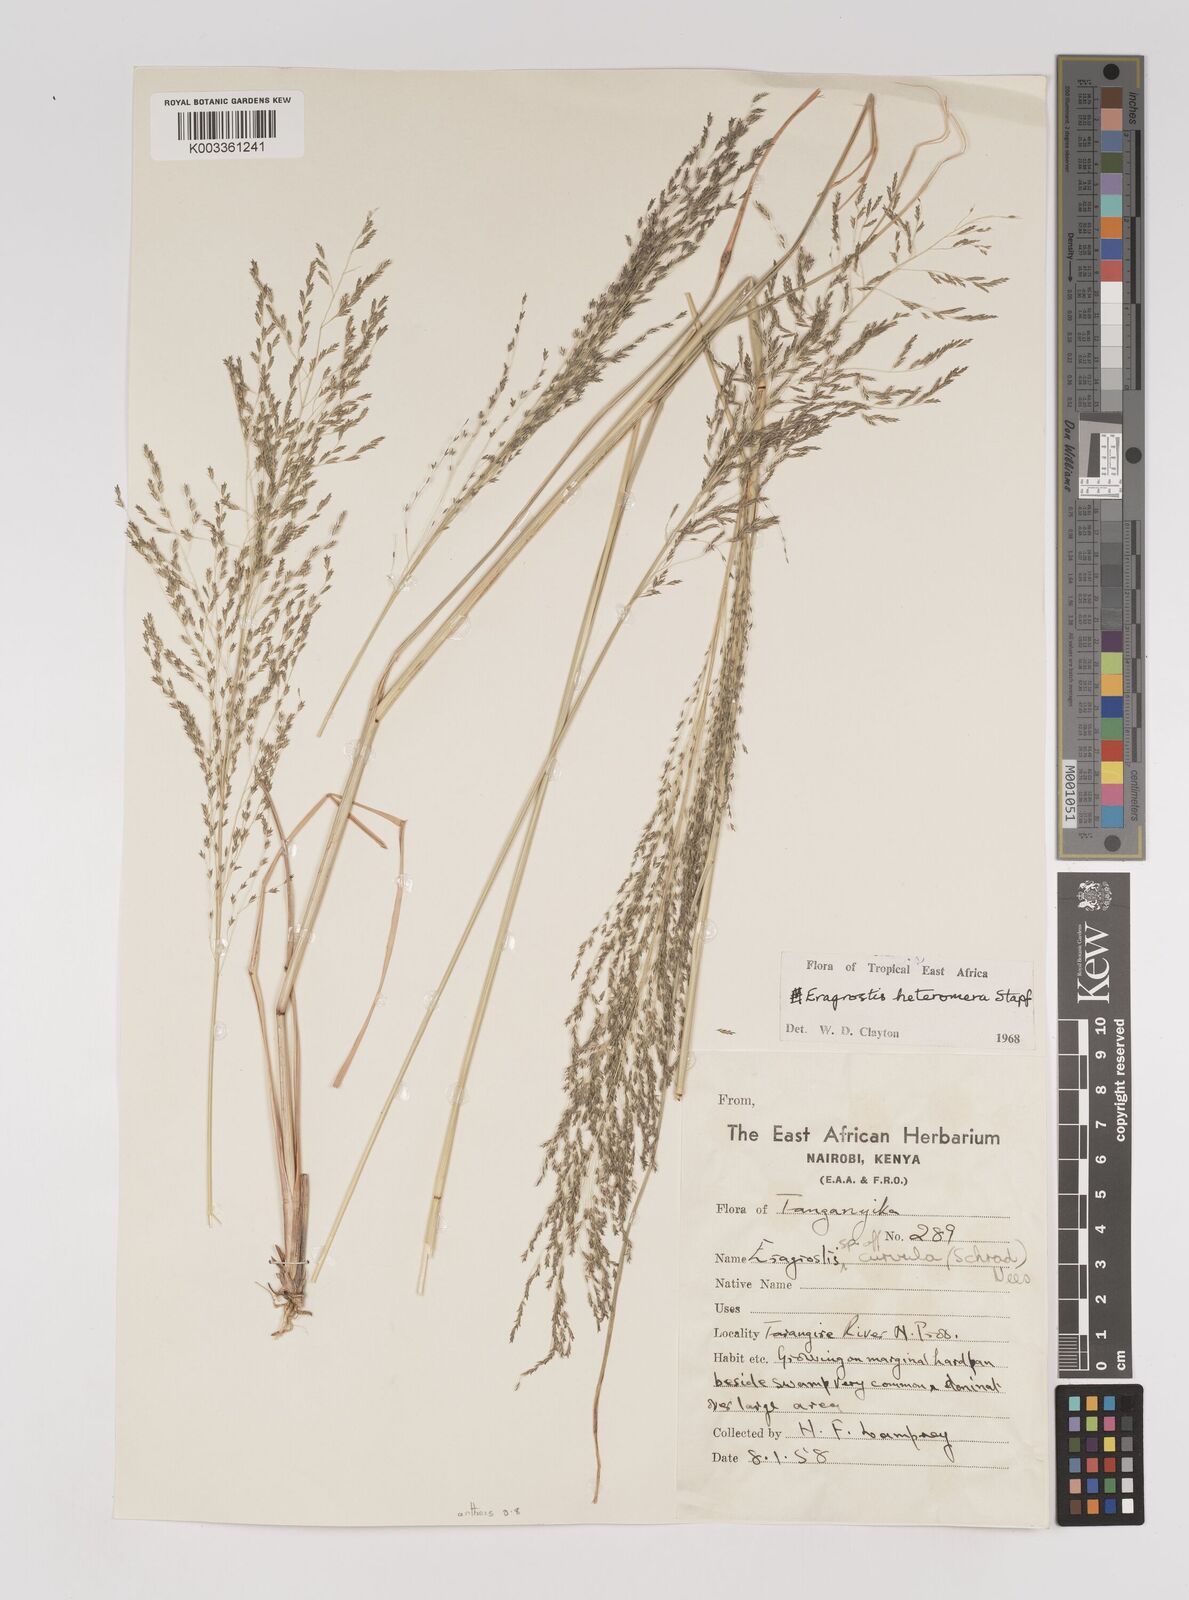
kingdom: Plantae
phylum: Tracheophyta
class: Liliopsida
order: Poales
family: Poaceae
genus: Eragrostis
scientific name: Eragrostis heteromera
